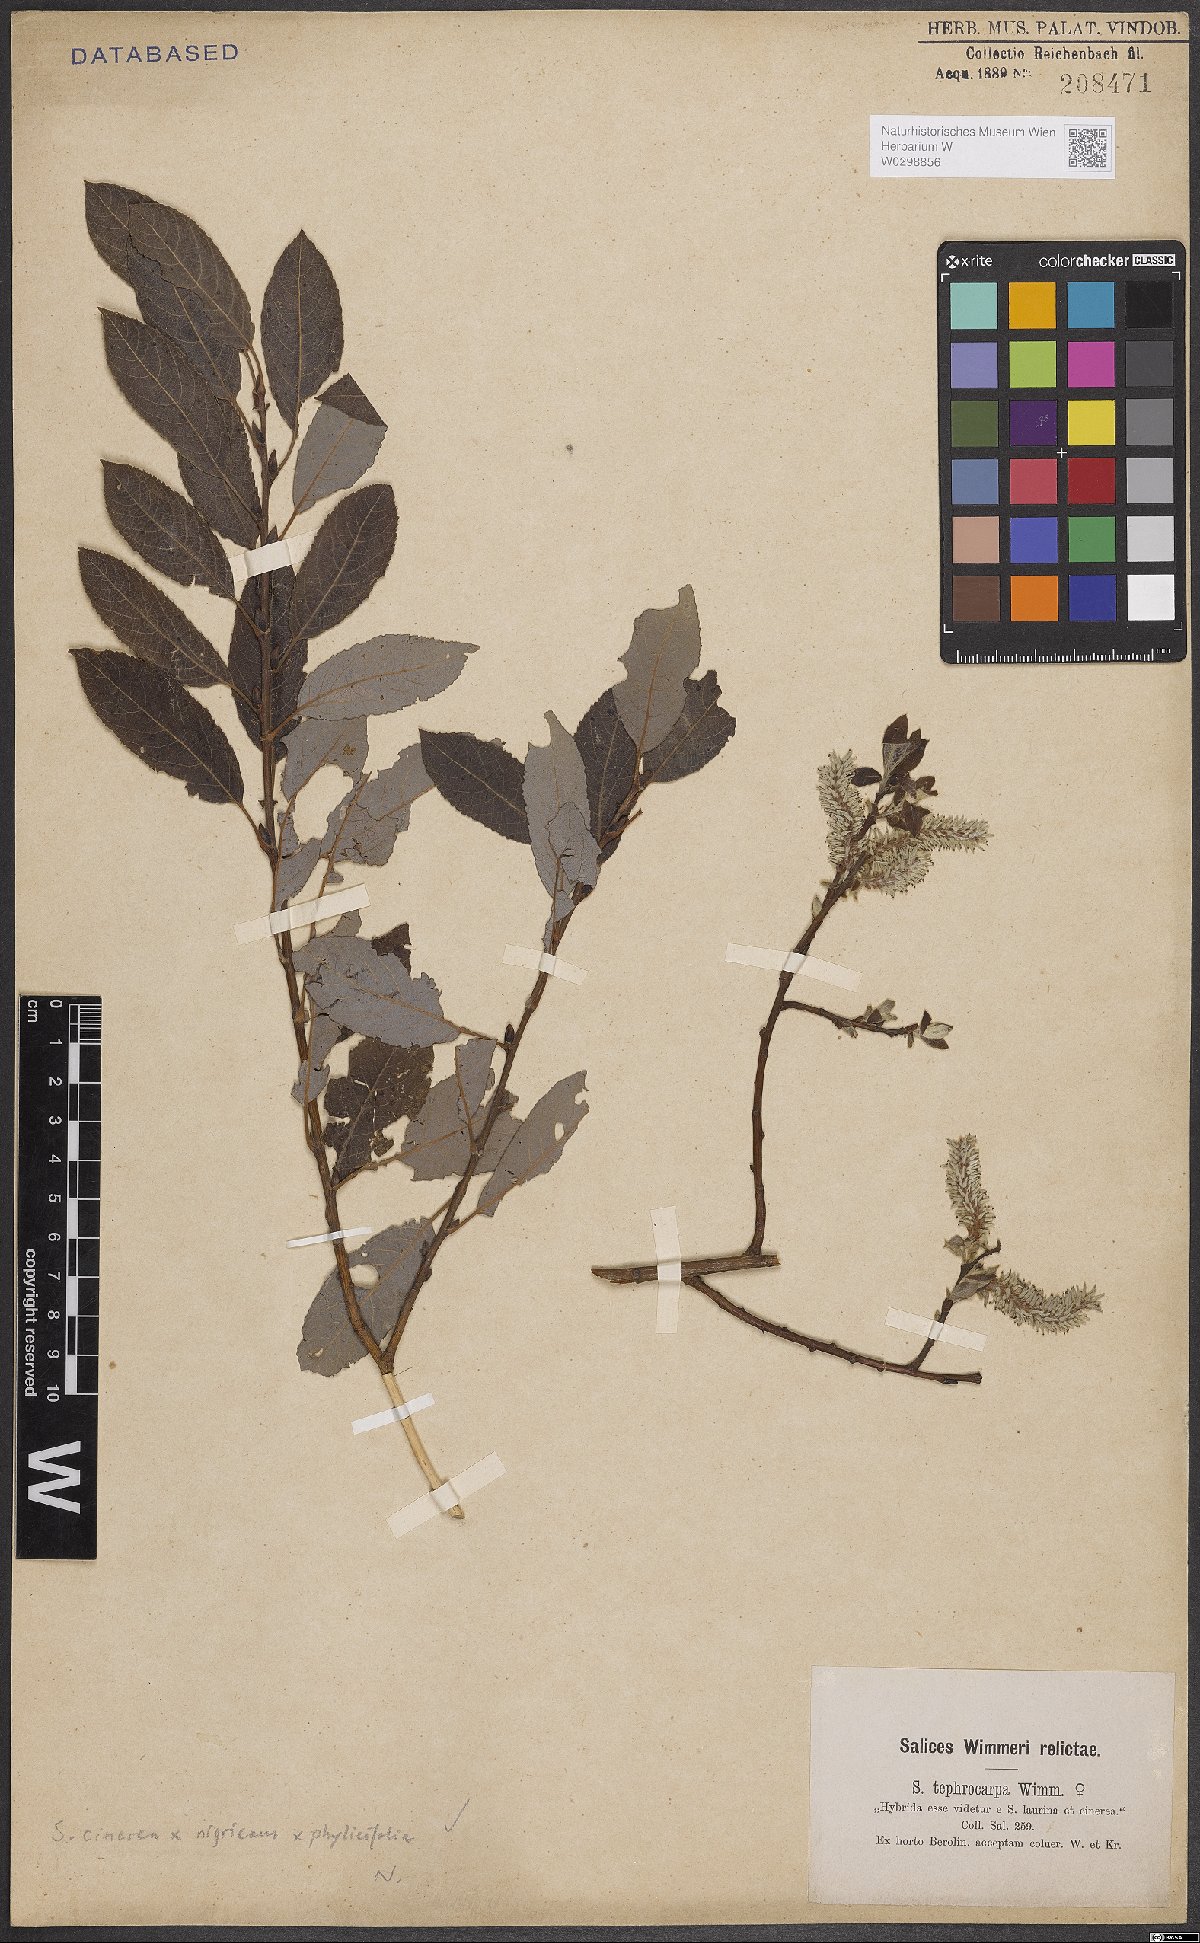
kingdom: Plantae
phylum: Tracheophyta
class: Magnoliopsida
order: Malpighiales
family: Salicaceae
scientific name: Salicaceae
